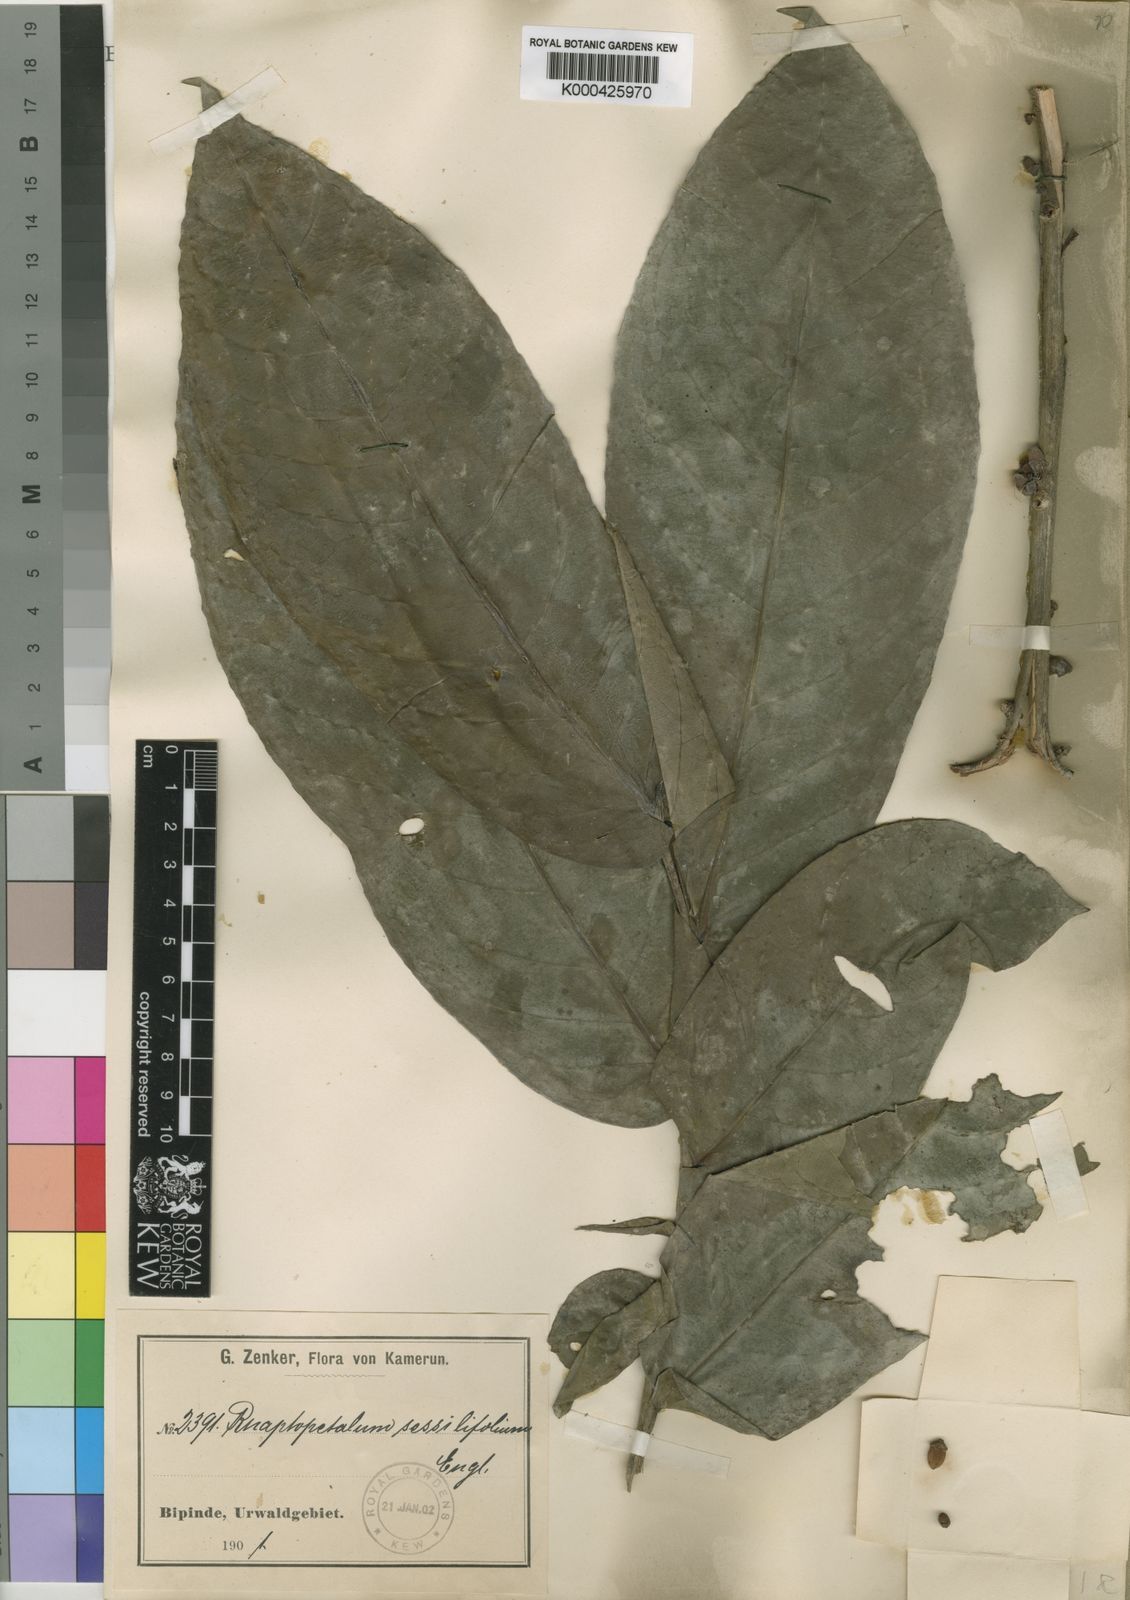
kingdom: Plantae
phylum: Tracheophyta
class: Magnoliopsida
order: Ericales
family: Lecythidaceae
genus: Rhaptopetalum
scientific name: Rhaptopetalum sessilifolium
